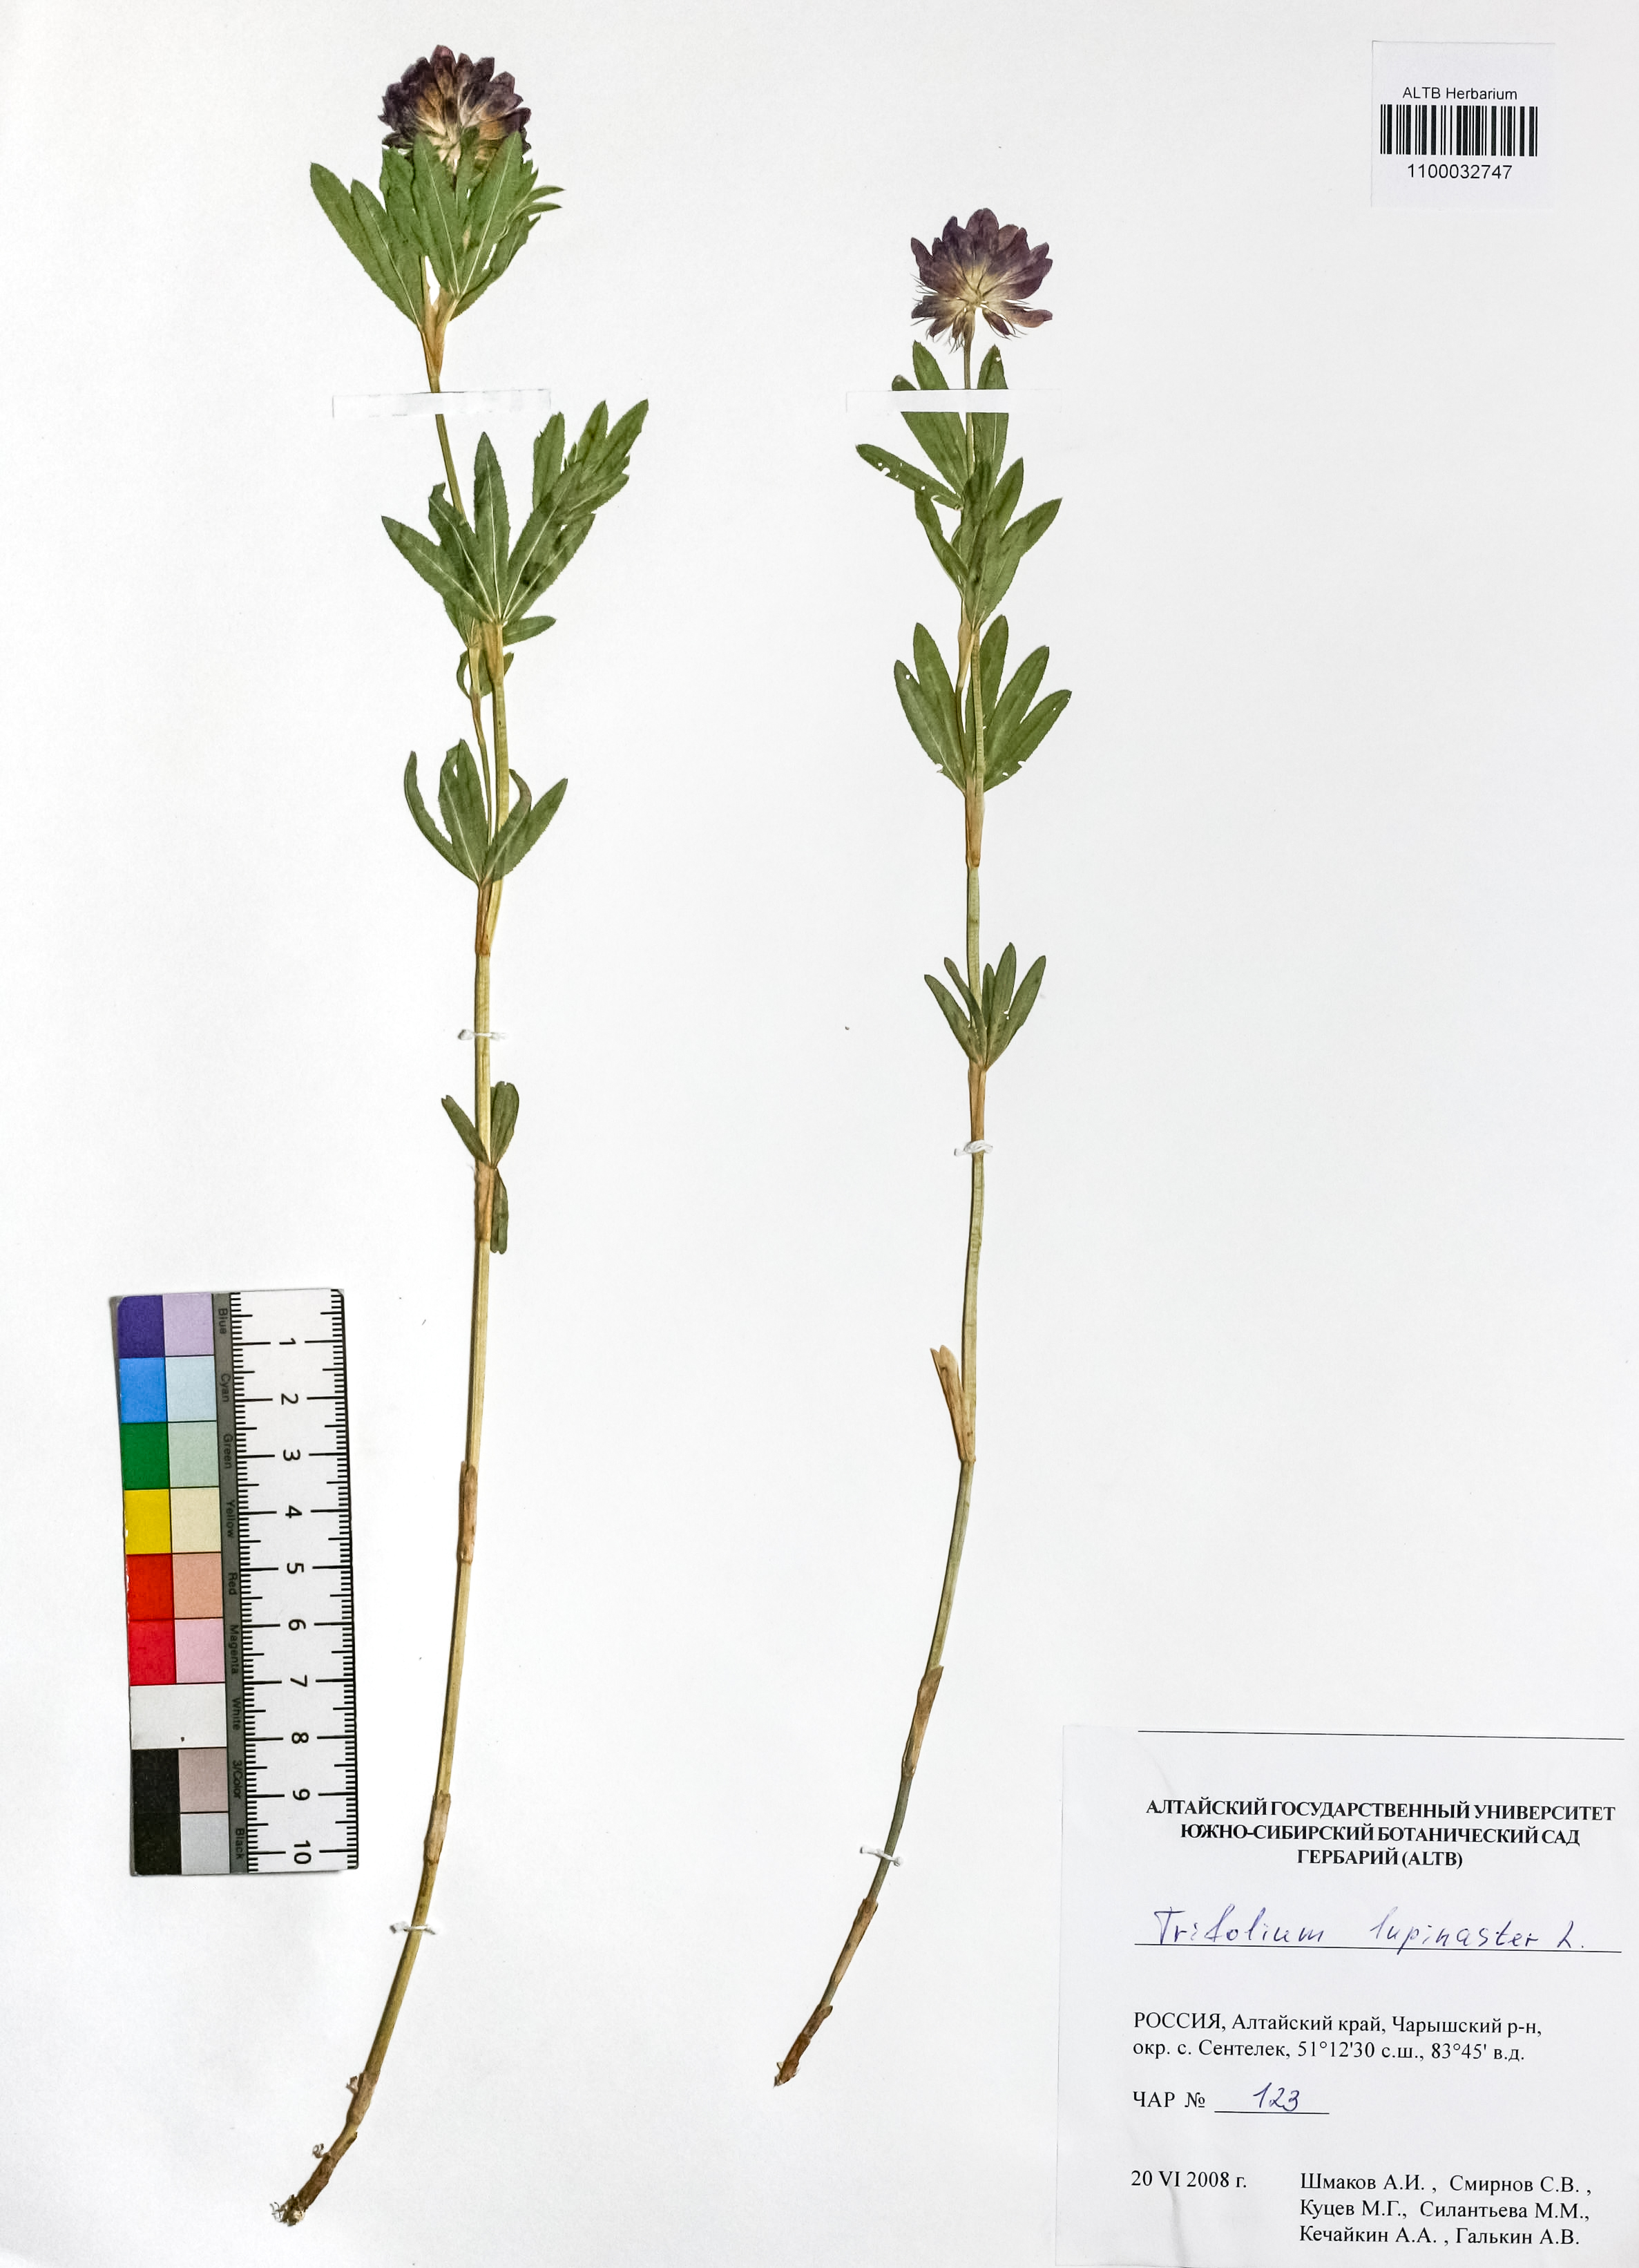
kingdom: Plantae
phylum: Tracheophyta
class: Magnoliopsida
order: Fabales
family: Fabaceae
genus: Trifolium
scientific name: Trifolium lupinaster
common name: Lupine clover
